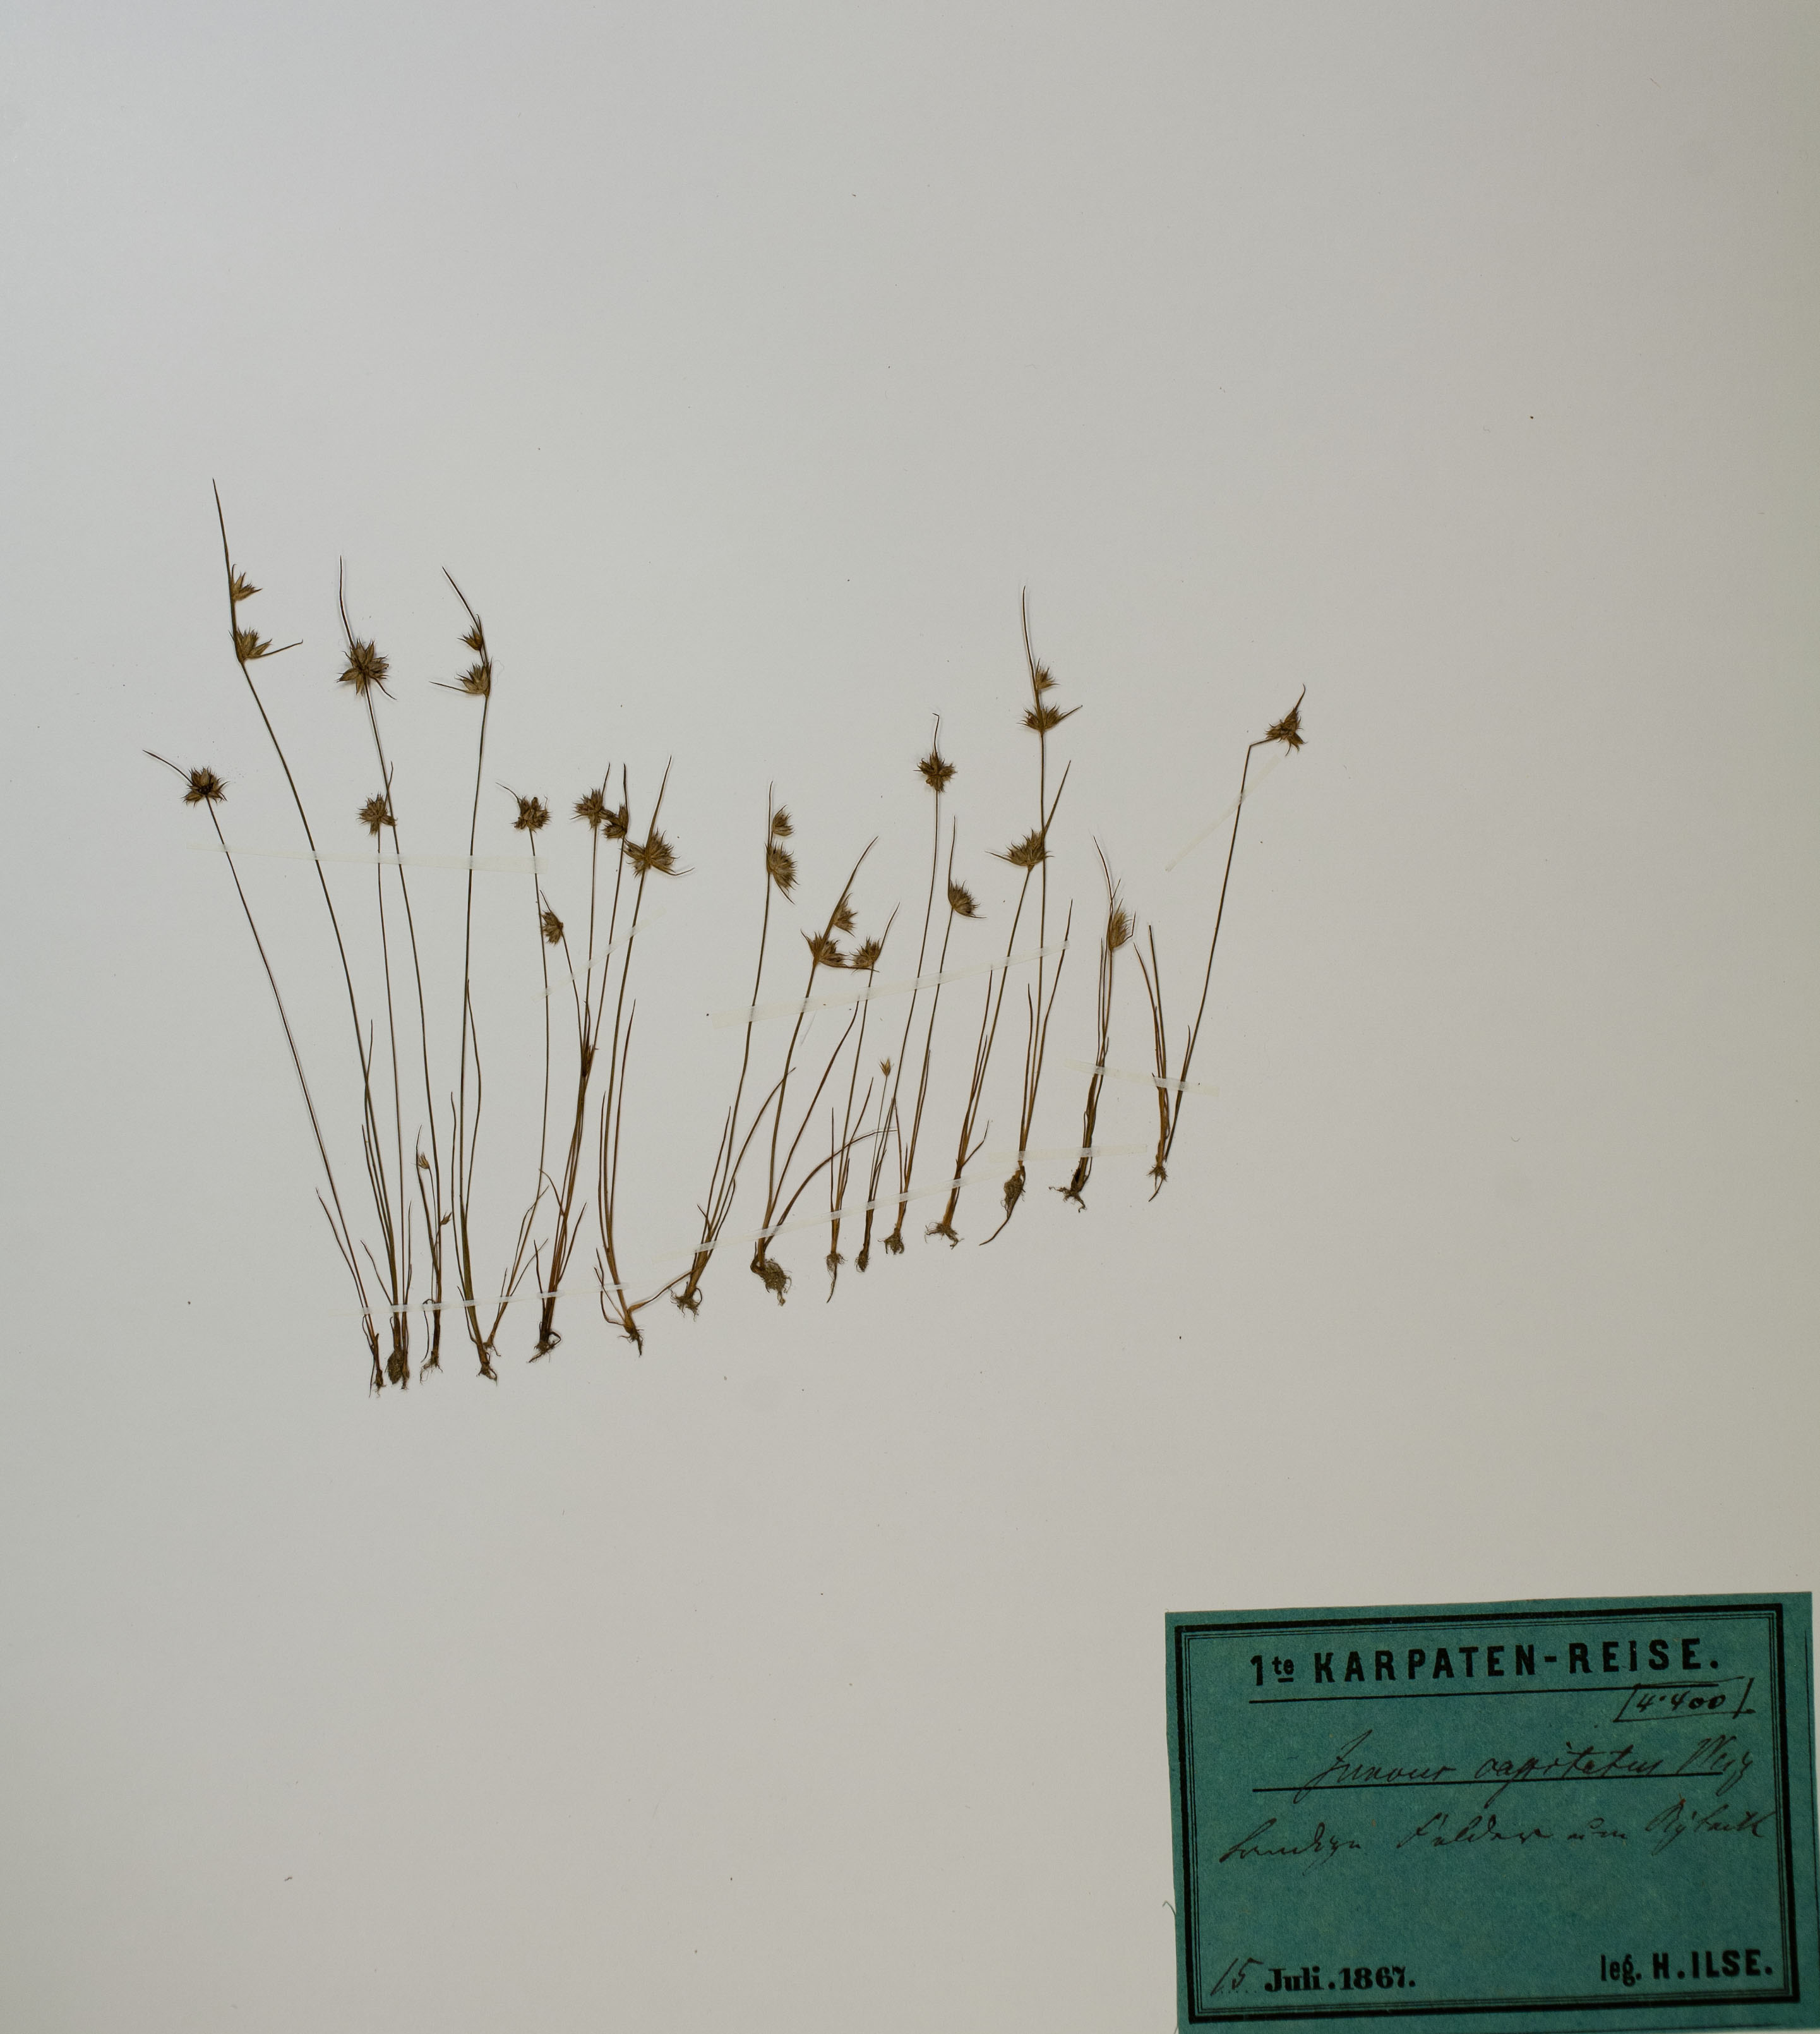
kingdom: Plantae
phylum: Tracheophyta
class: Liliopsida
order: Poales
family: Juncaceae
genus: Juncus
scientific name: Juncus capitatus
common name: Dwarf rush
